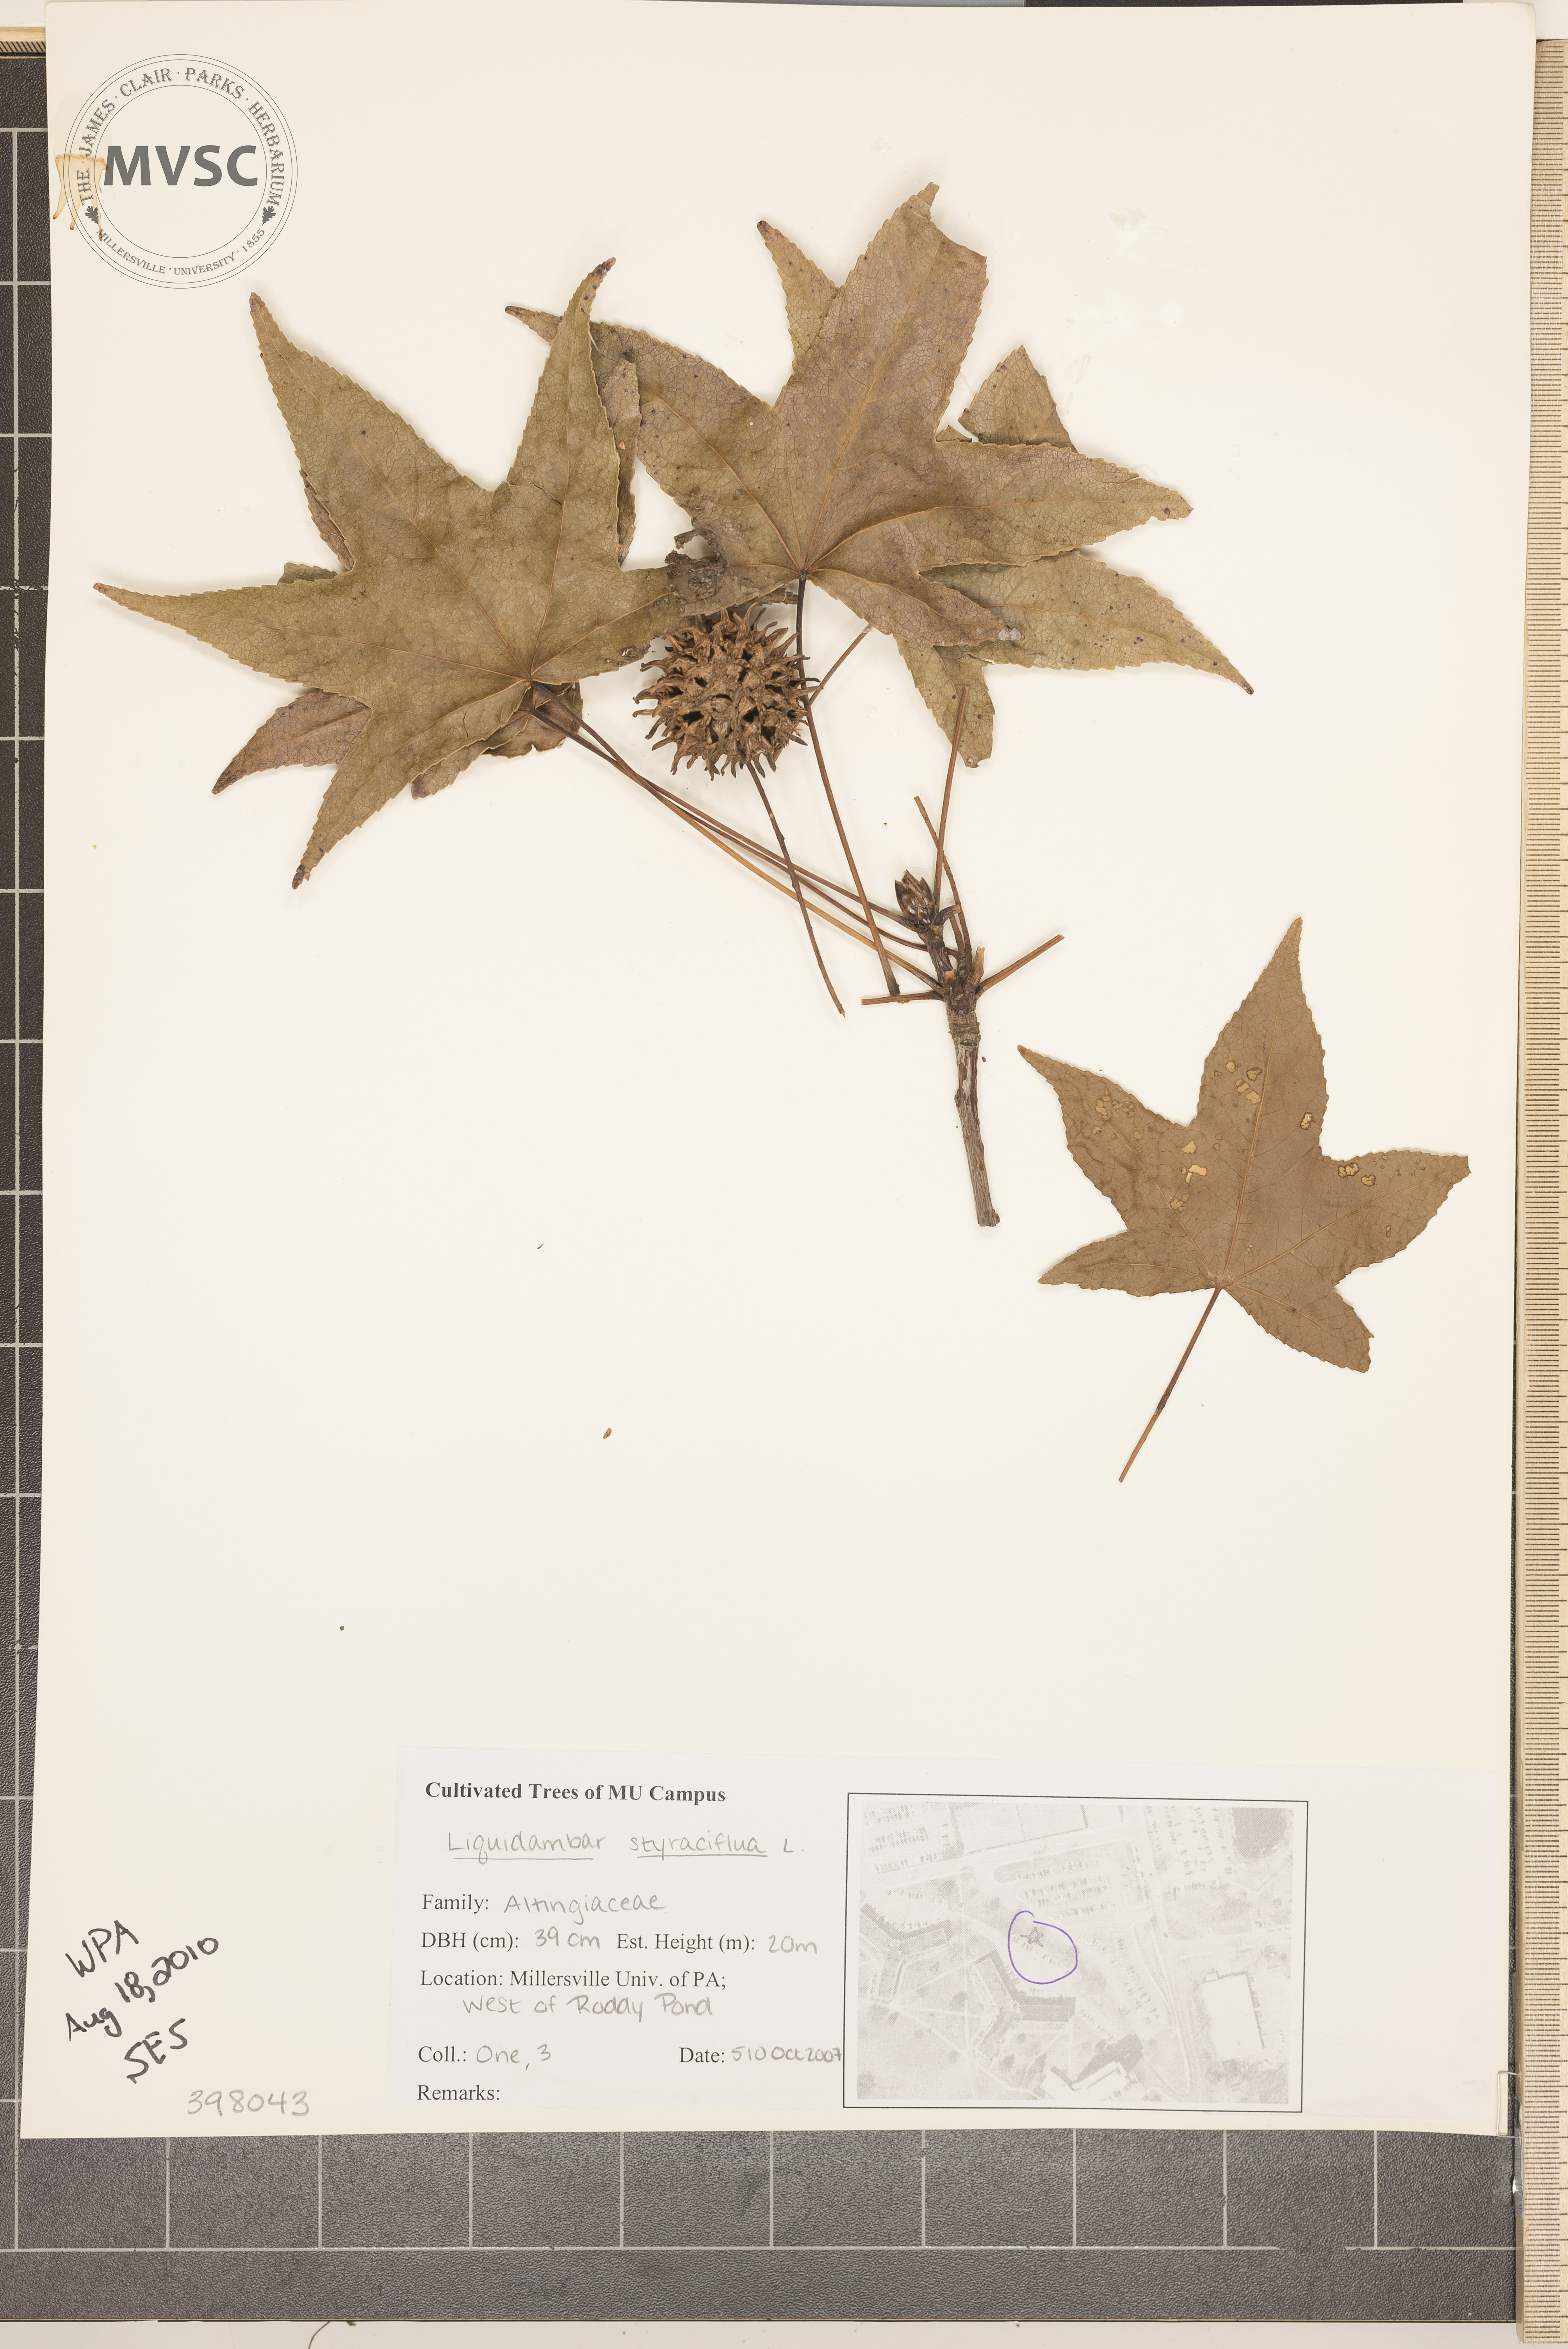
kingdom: Plantae
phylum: Tracheophyta
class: Magnoliopsida
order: Saxifragales
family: Altingiaceae
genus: Liquidambar
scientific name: Liquidambar styraciflua
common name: Sweetgum
